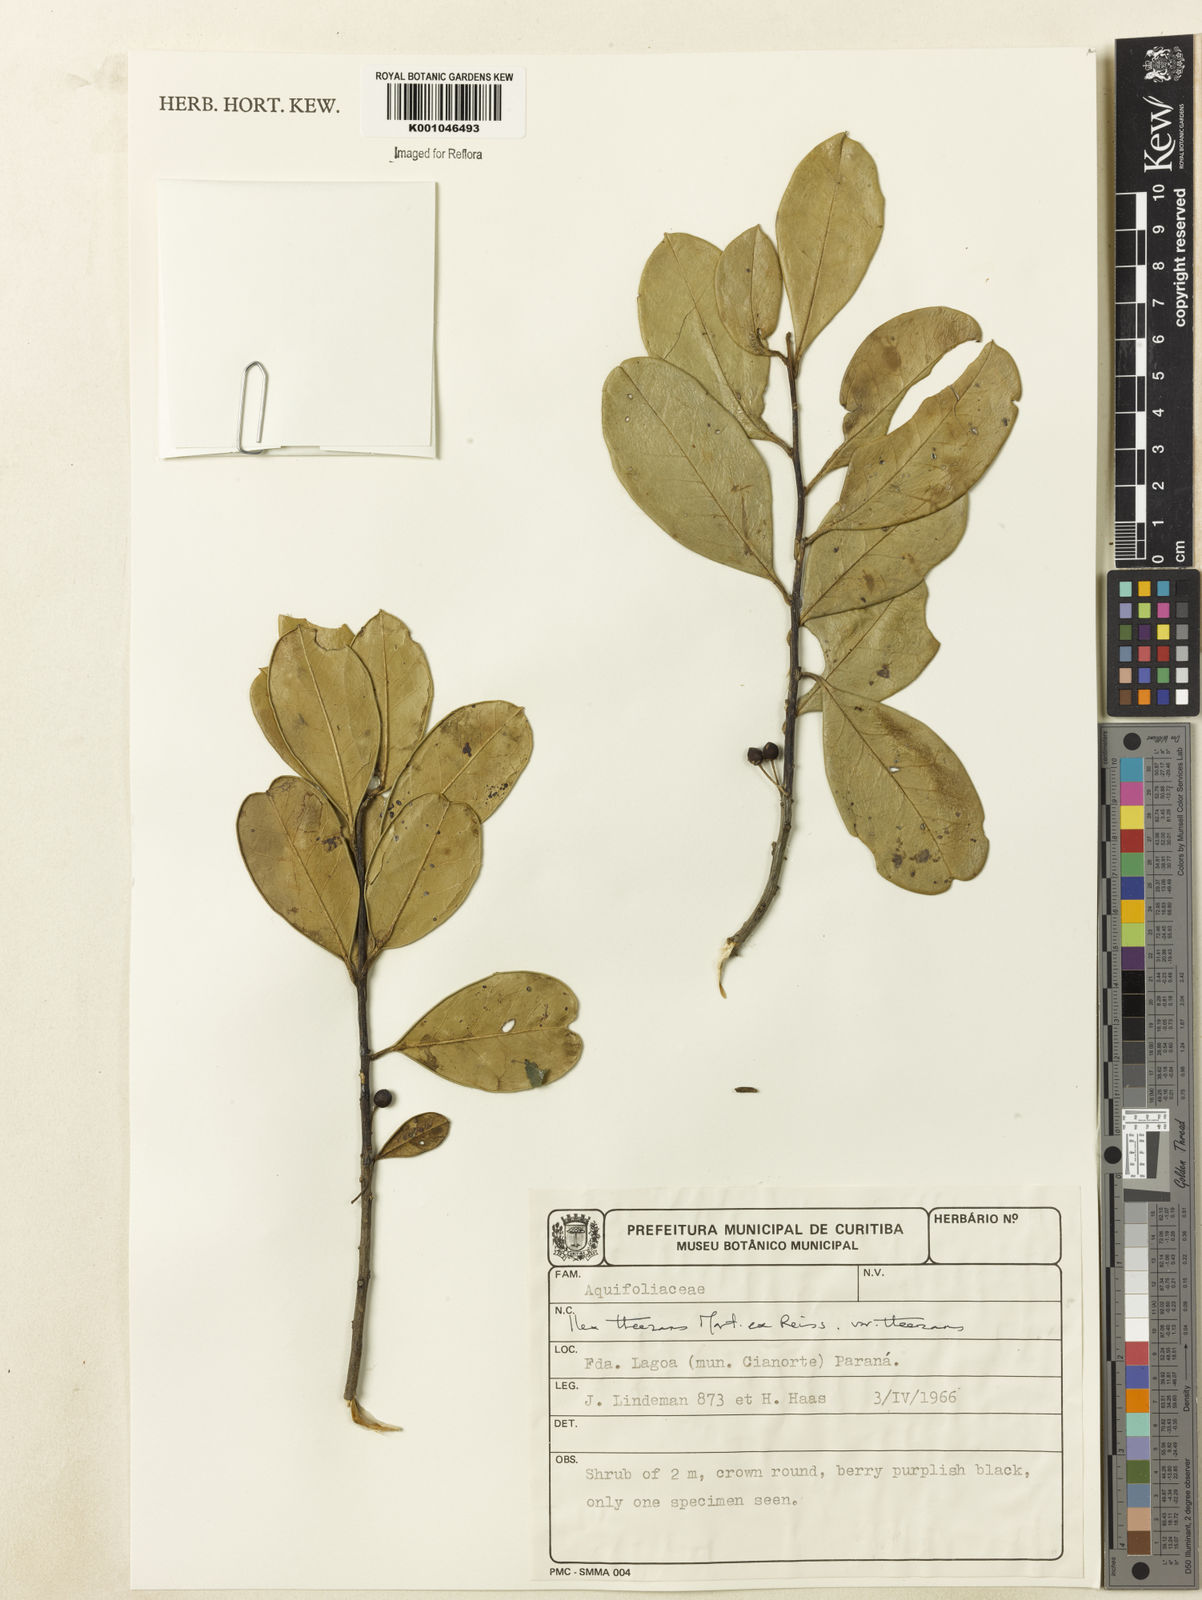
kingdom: Plantae
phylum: Tracheophyta
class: Magnoliopsida
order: Aquifoliales
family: Aquifoliaceae
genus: Ilex
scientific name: Ilex paraguariensis
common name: Paraguay tea
